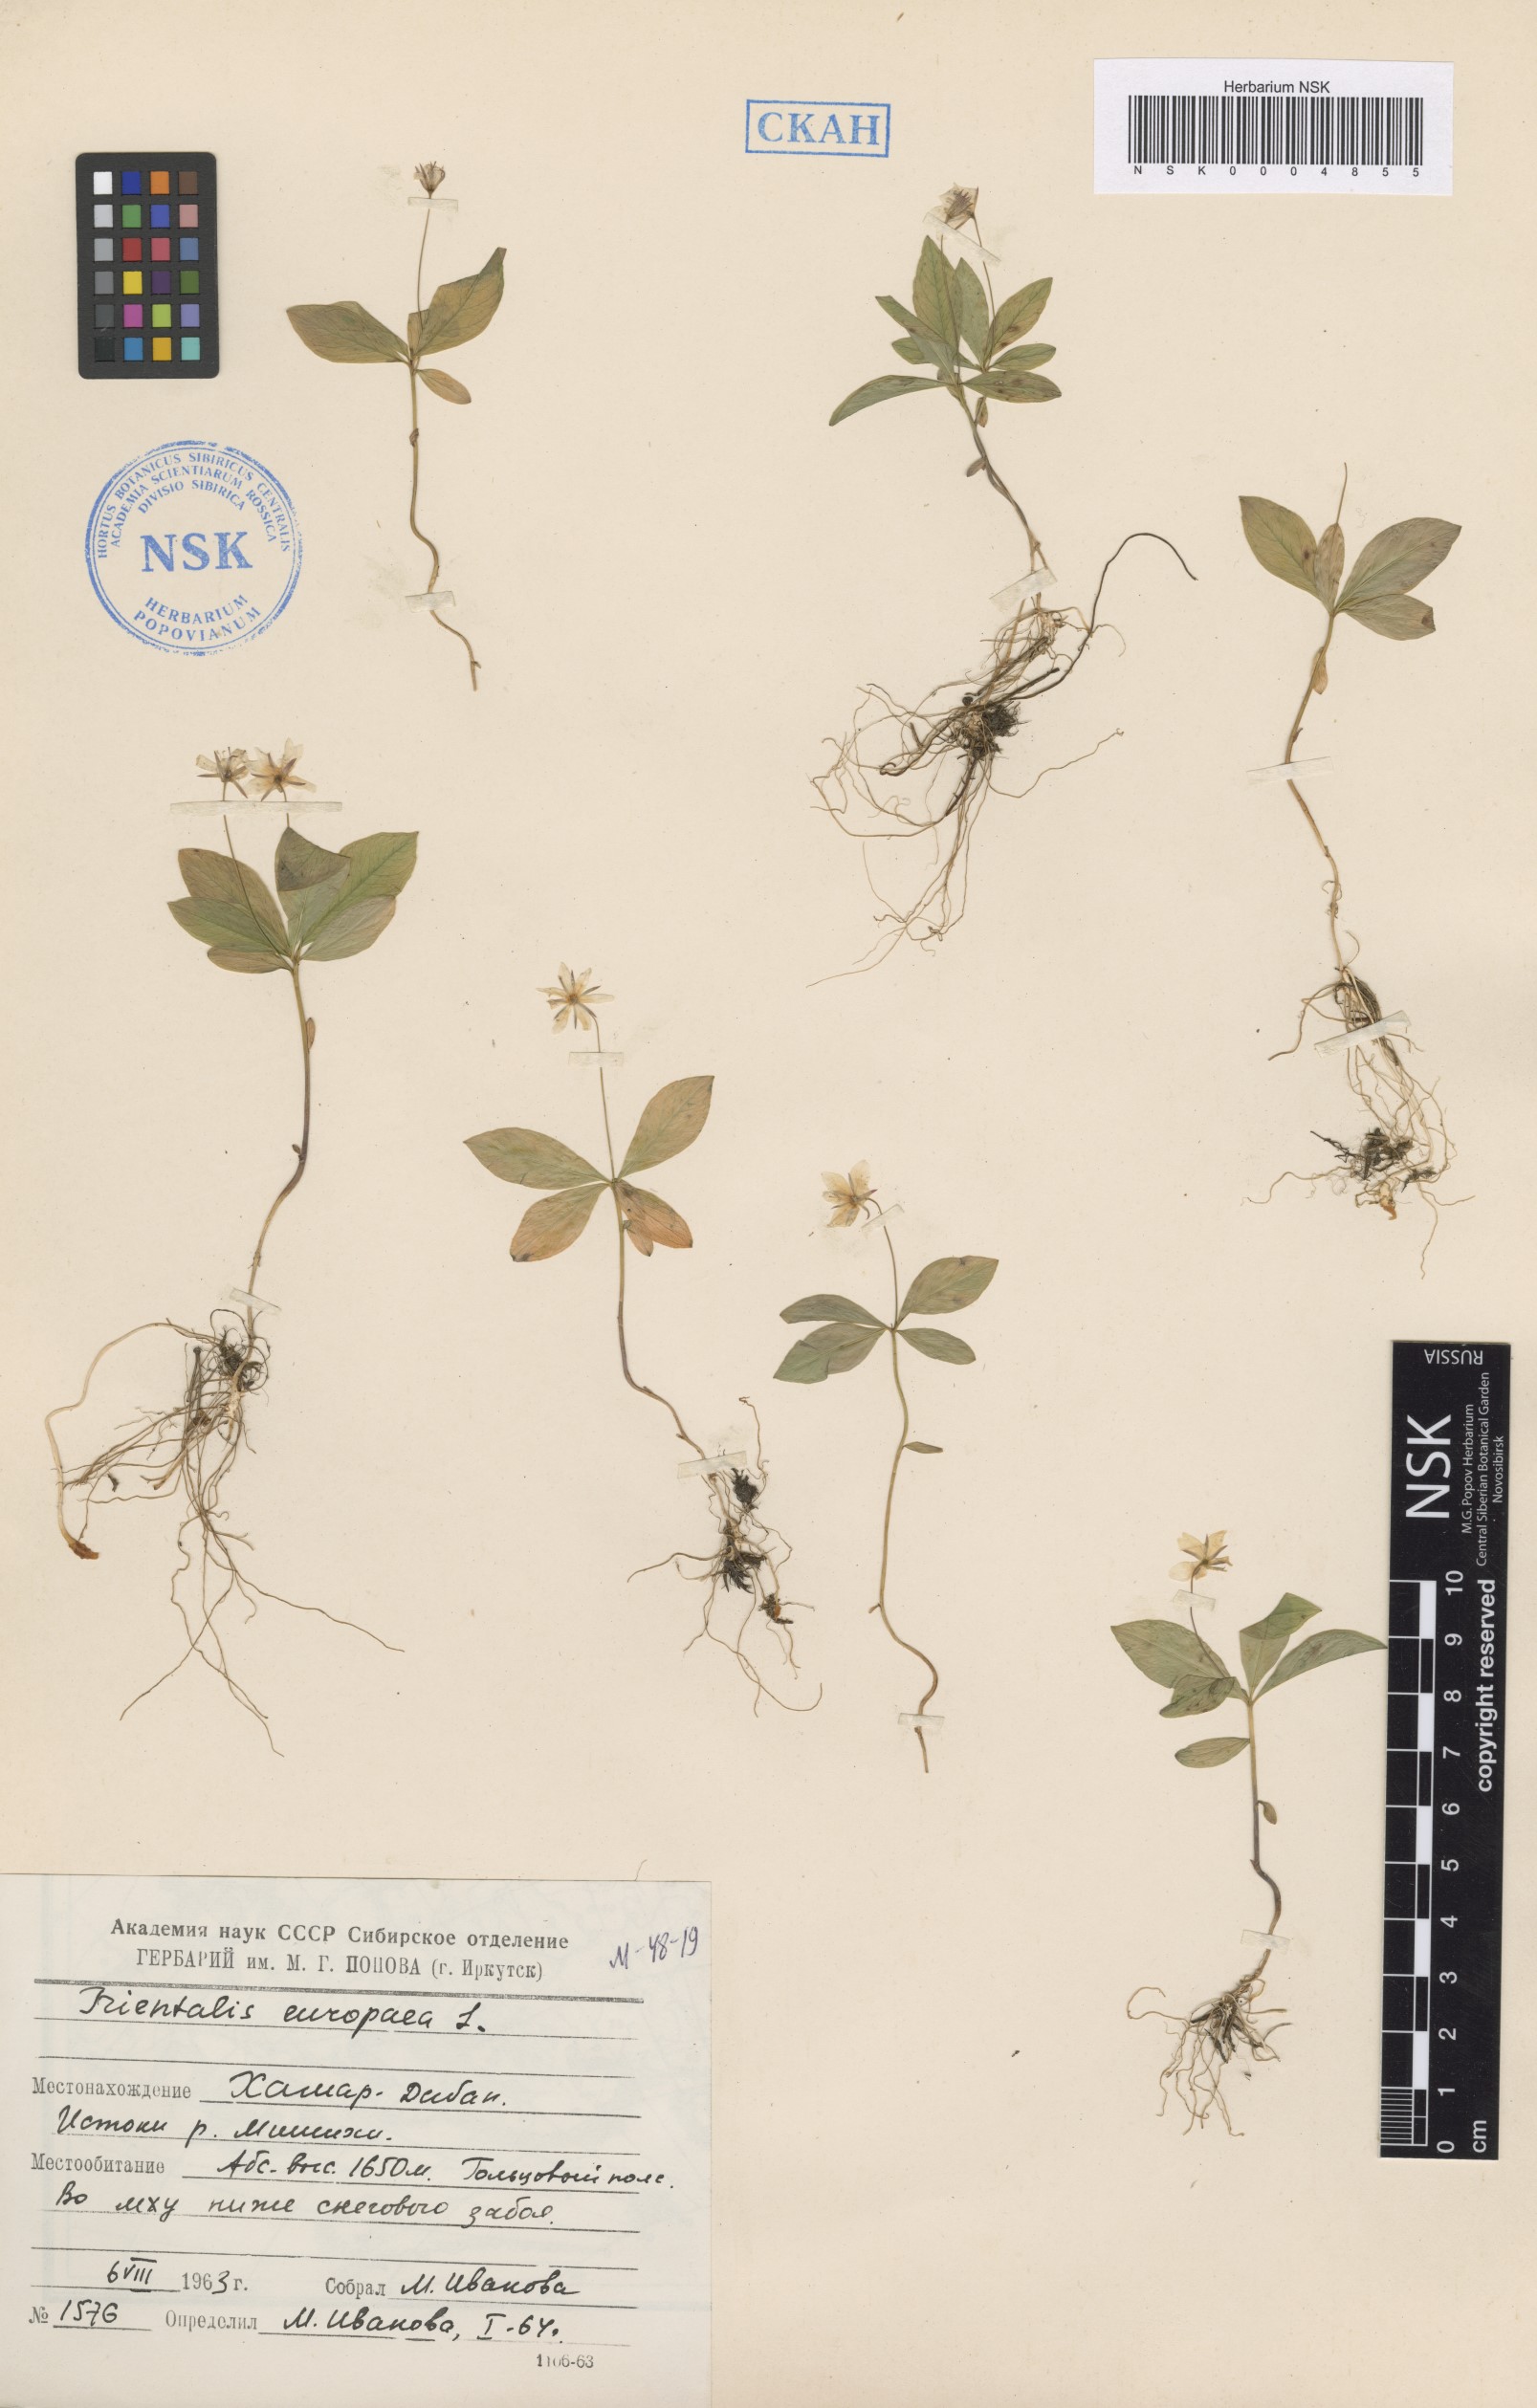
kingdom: Plantae
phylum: Tracheophyta
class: Magnoliopsida
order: Ericales
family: Primulaceae
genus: Lysimachia
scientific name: Lysimachia europaea
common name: Arctic starflower
